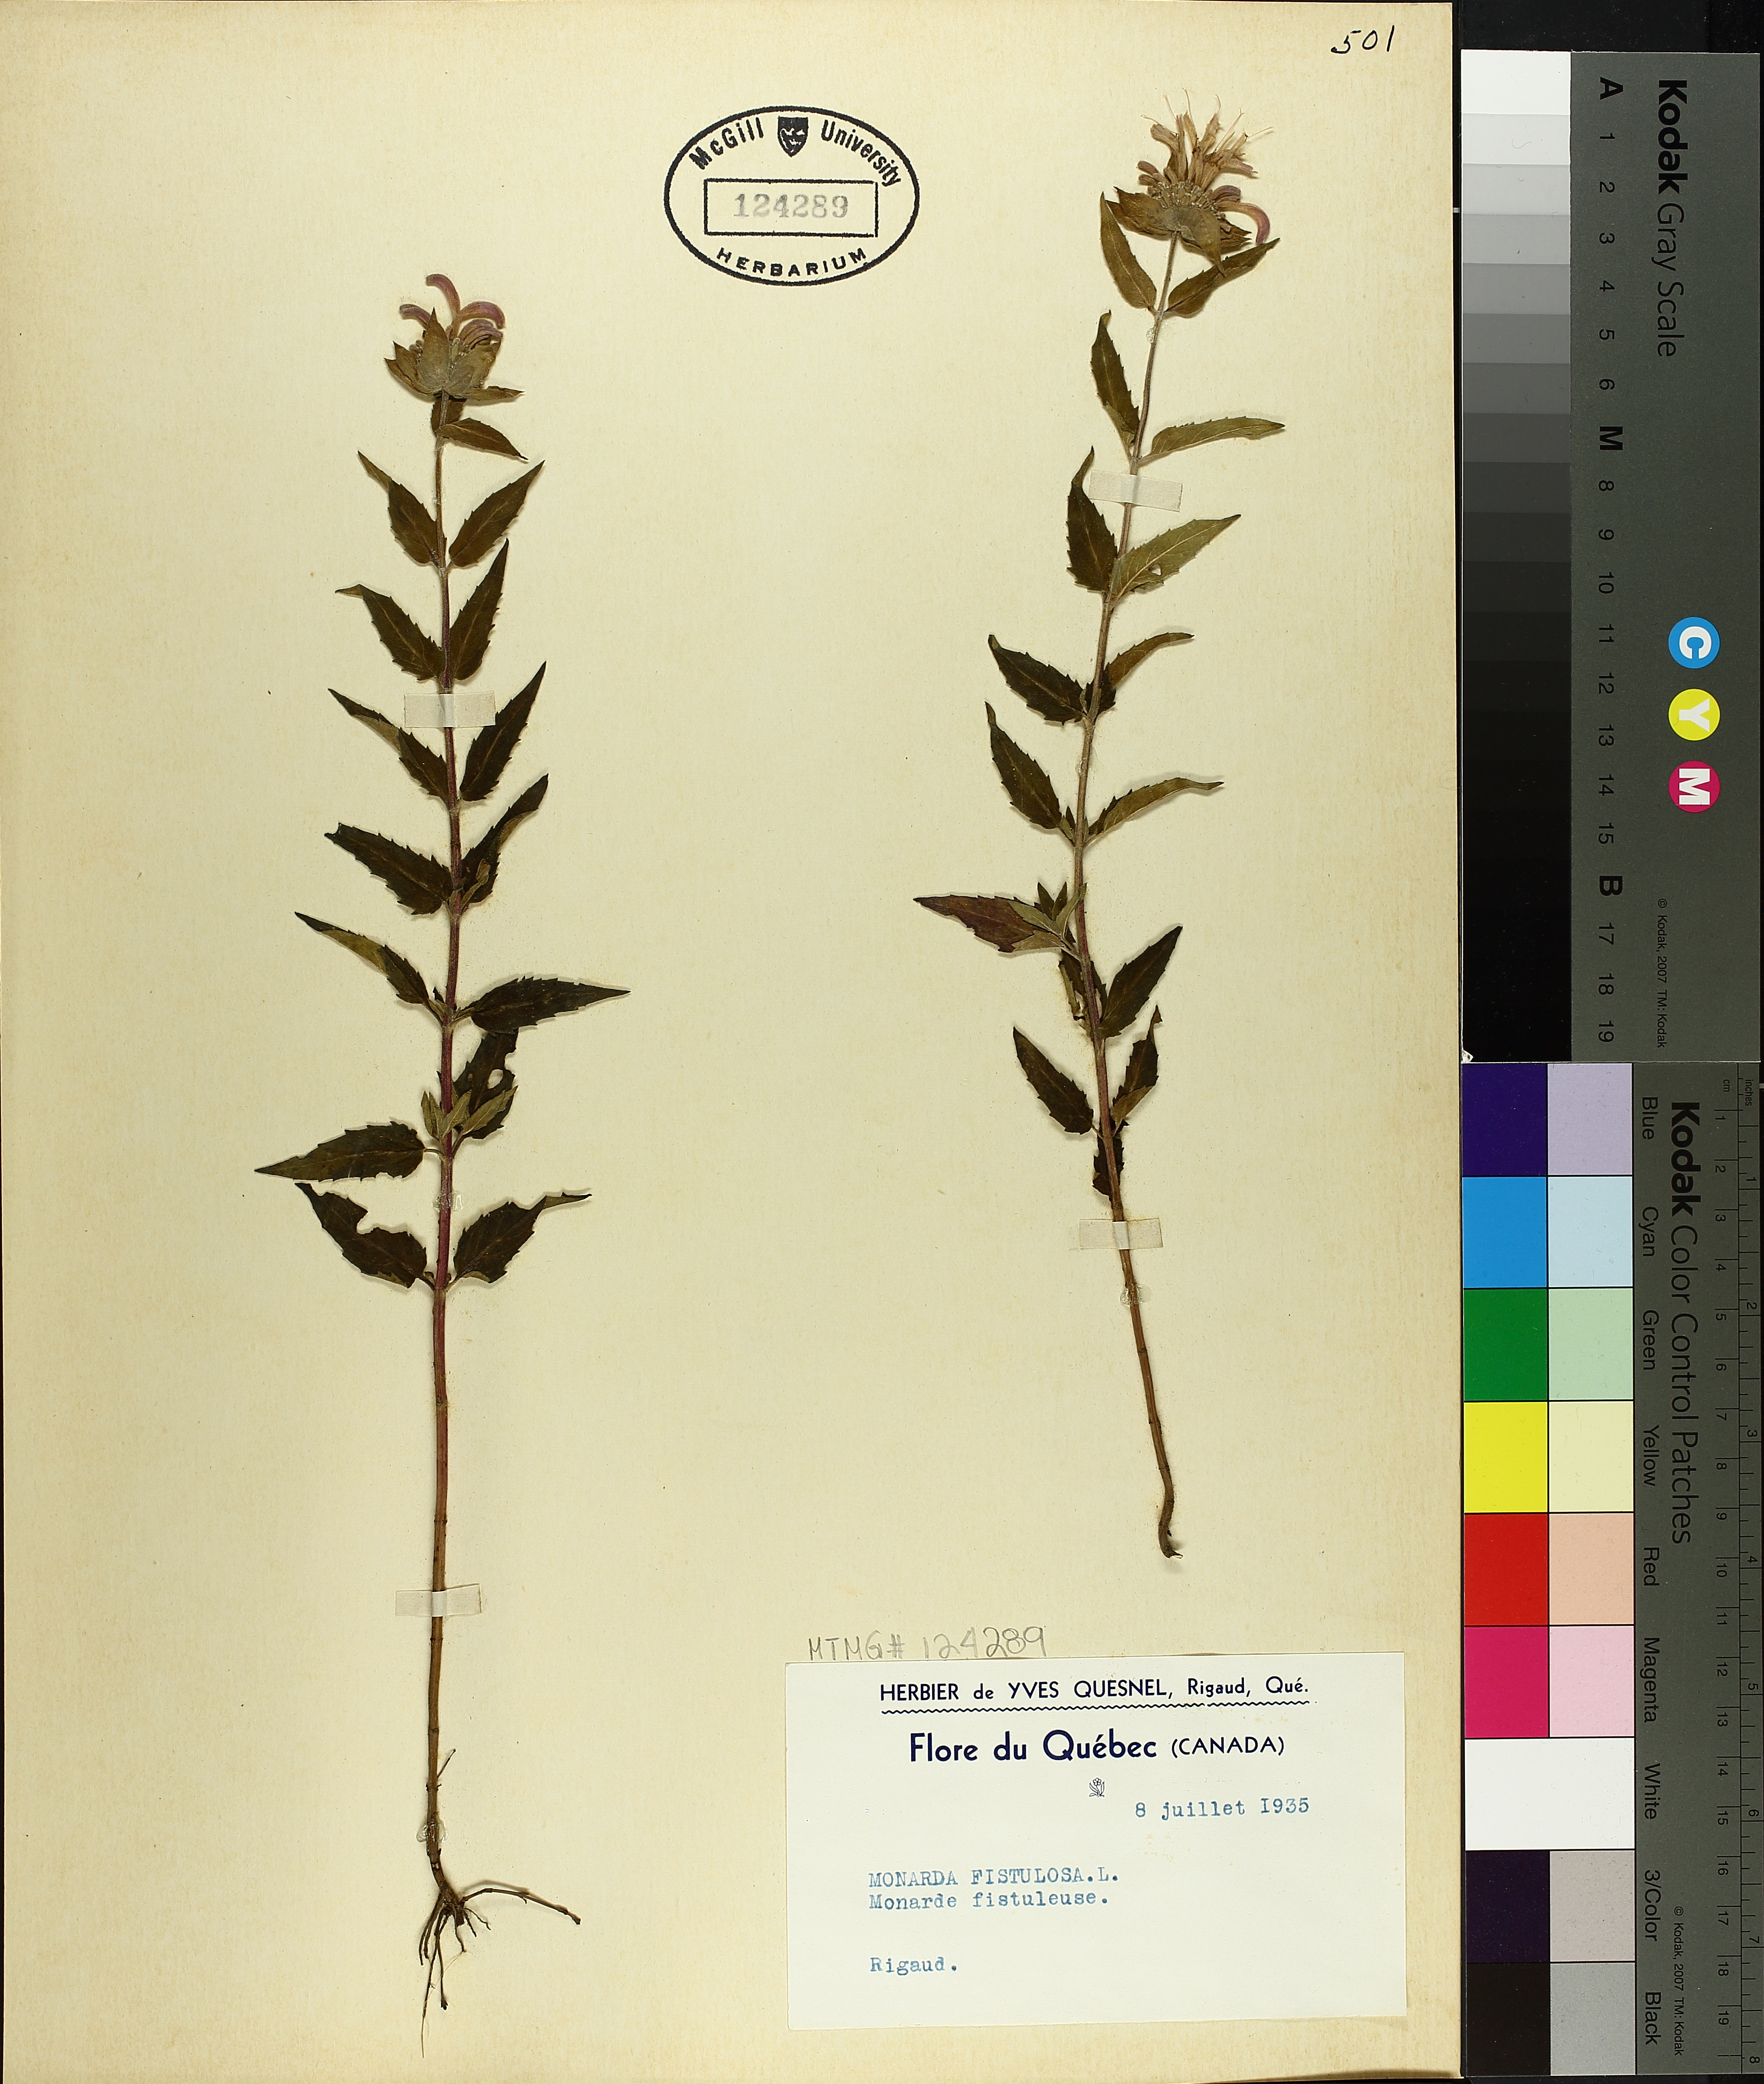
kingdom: Plantae
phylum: Tracheophyta
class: Magnoliopsida
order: Lamiales
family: Lamiaceae
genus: Monarda
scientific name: Monarda fistulosa
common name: Purple beebalm
